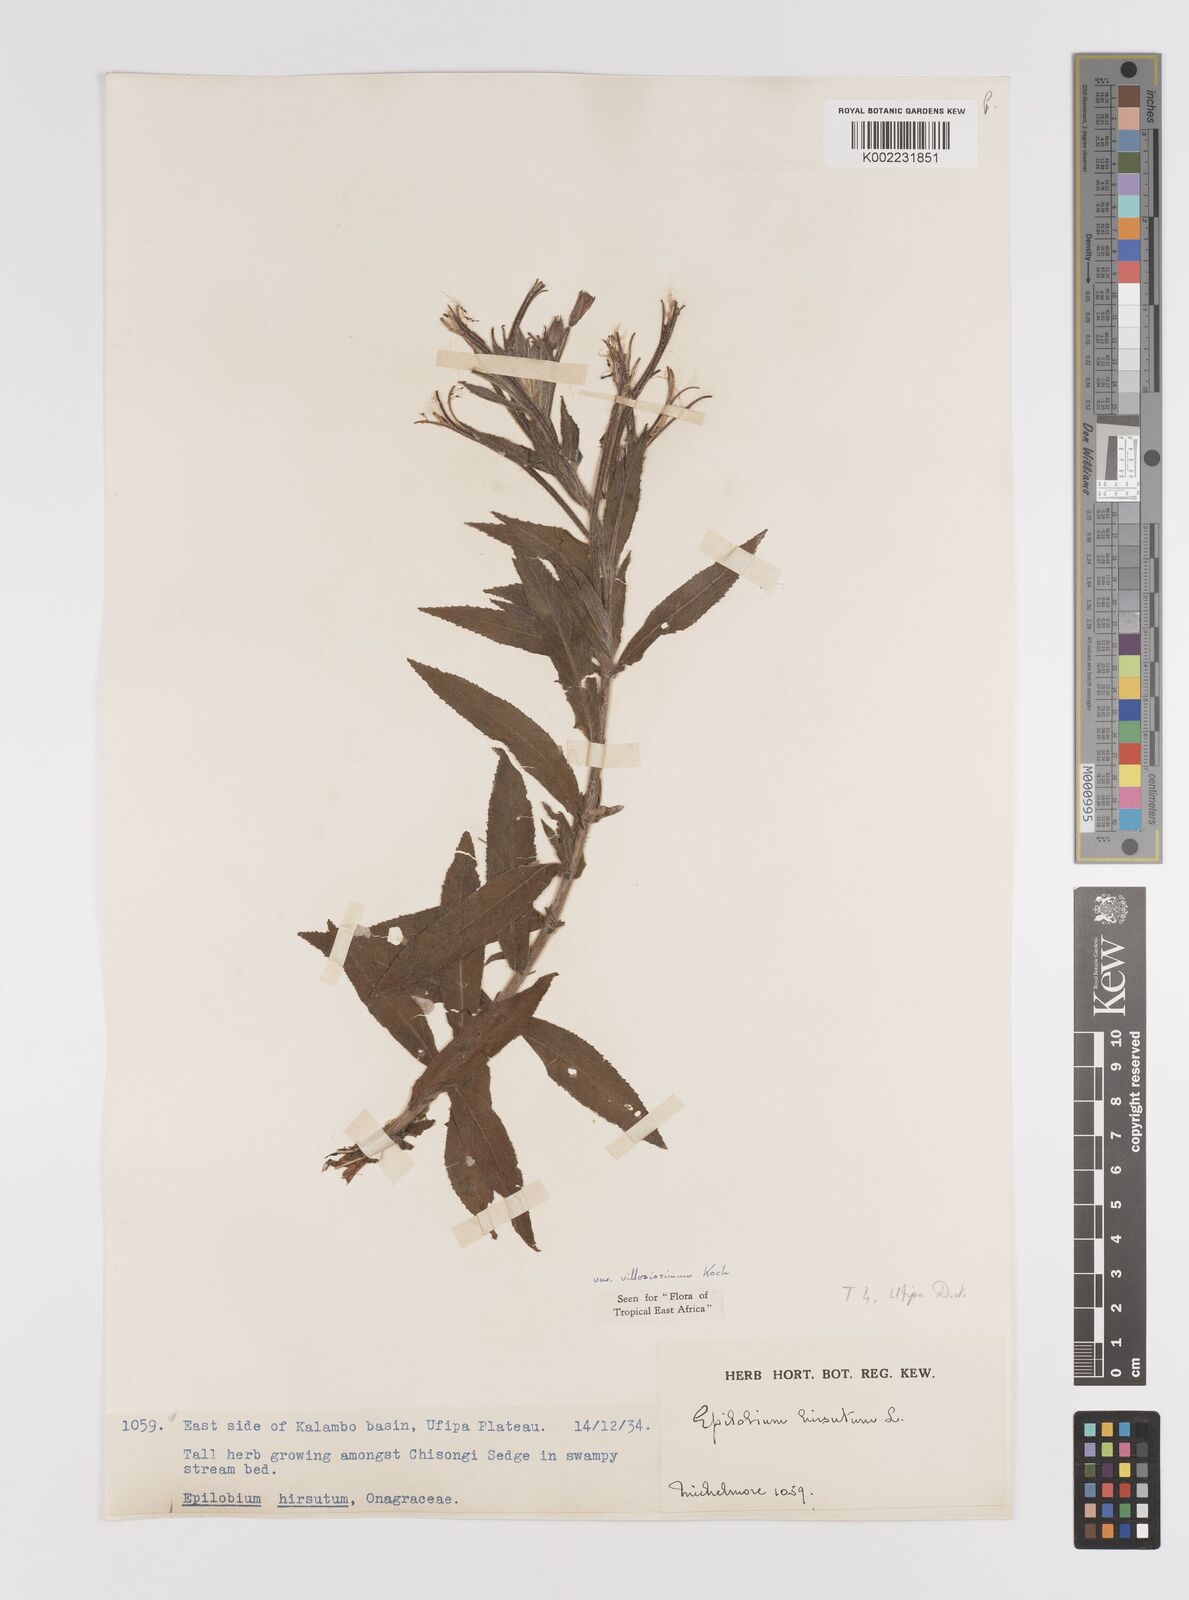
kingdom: Plantae
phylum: Tracheophyta
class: Magnoliopsida
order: Myrtales
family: Onagraceae
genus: Epilobium
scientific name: Epilobium hirsutum
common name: Great willowherb
